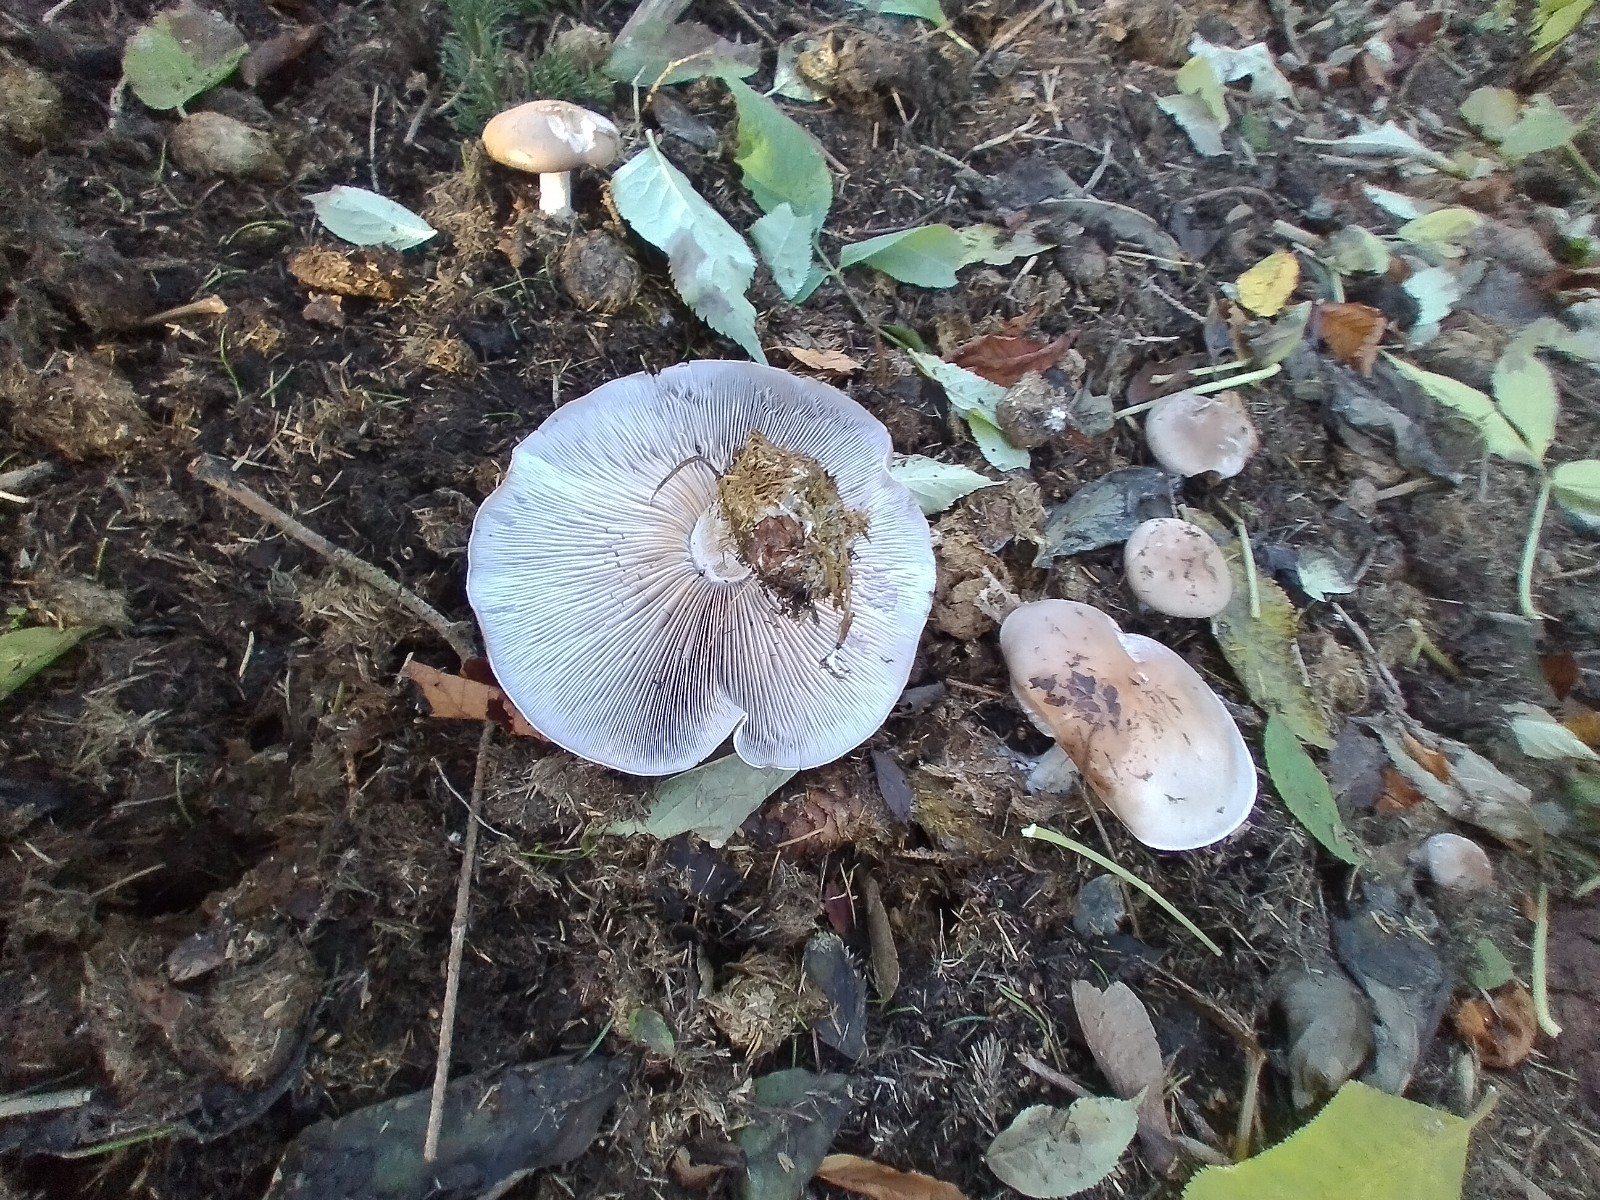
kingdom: Fungi
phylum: Basidiomycota
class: Agaricomycetes
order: Agaricales
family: Tricholomataceae
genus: Lepista
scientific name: Lepista nuda
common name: violet hekseringshat
